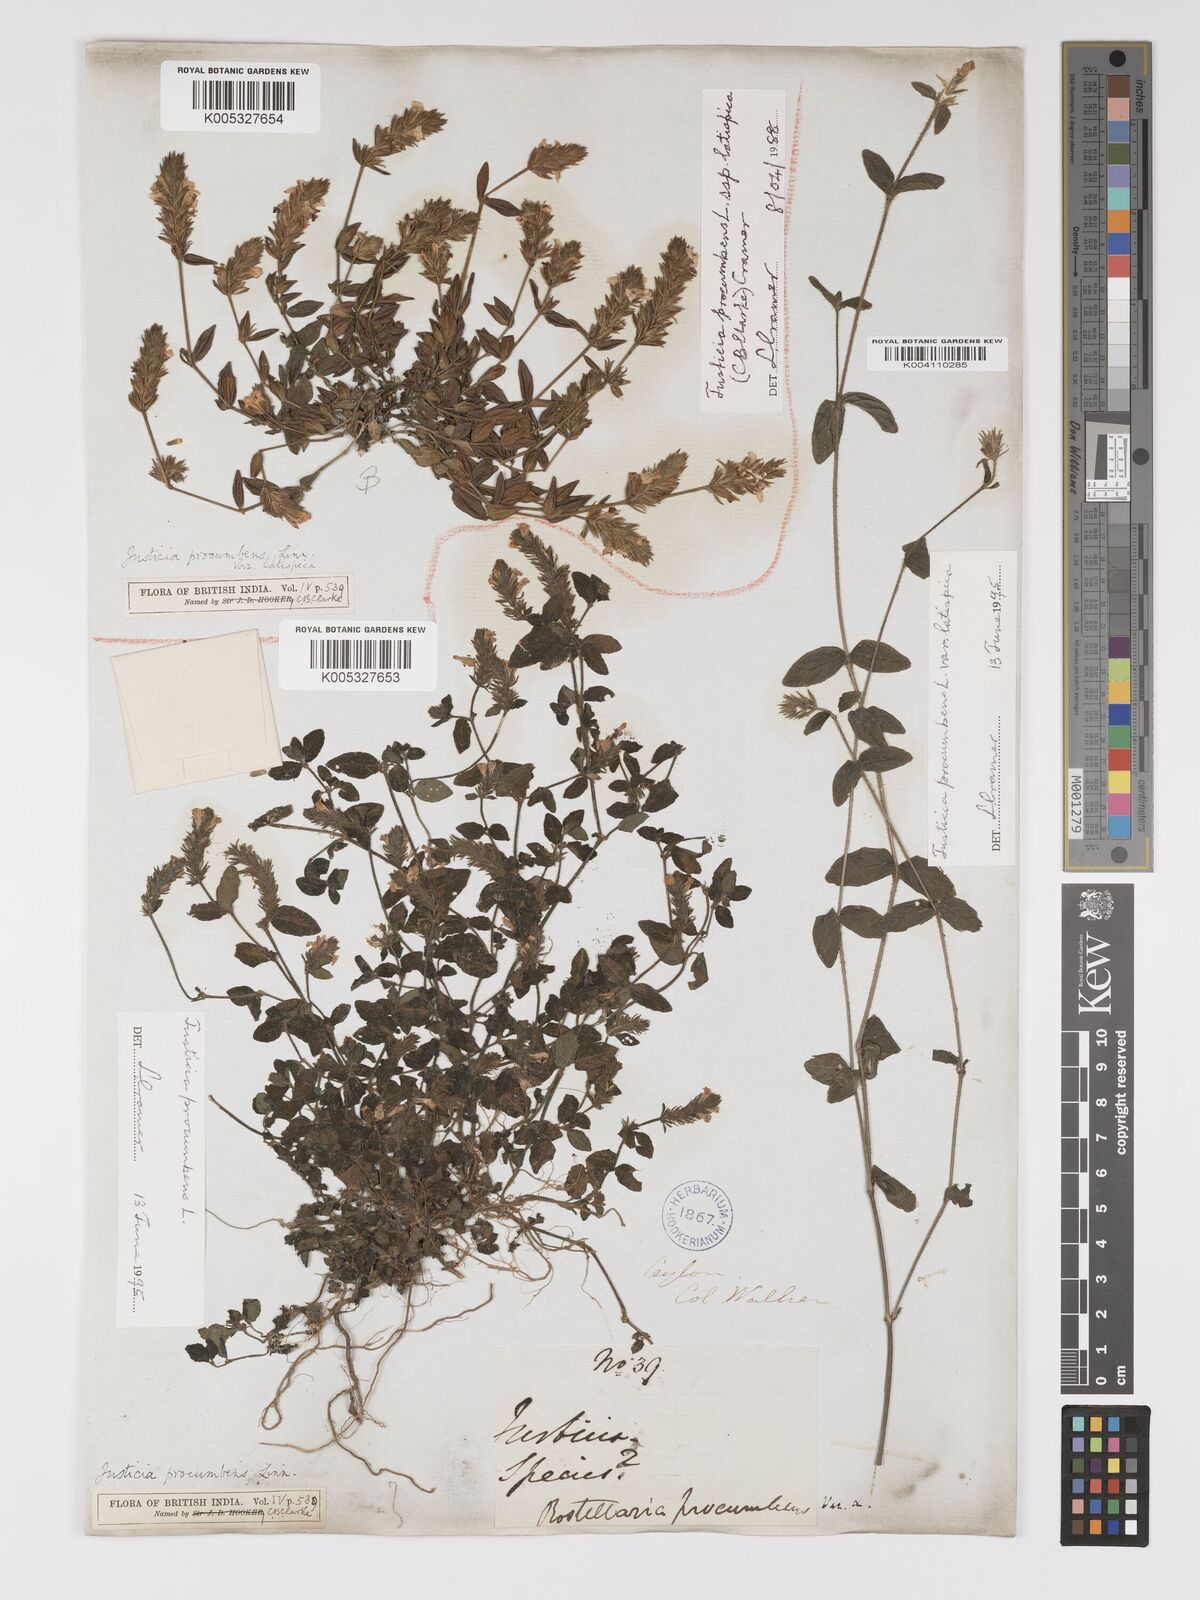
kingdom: Plantae
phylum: Tracheophyta
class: Magnoliopsida
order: Lamiales
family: Acanthaceae
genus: Rostellularia
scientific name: Rostellularia latispica
